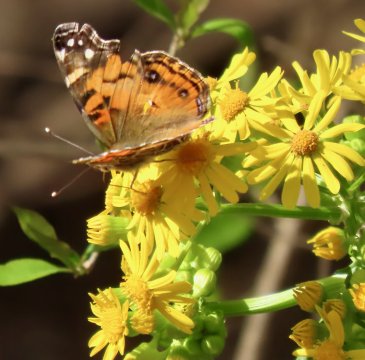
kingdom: Animalia
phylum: Arthropoda
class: Insecta
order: Lepidoptera
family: Nymphalidae
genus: Vanessa
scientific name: Vanessa virginiensis
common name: American Lady
